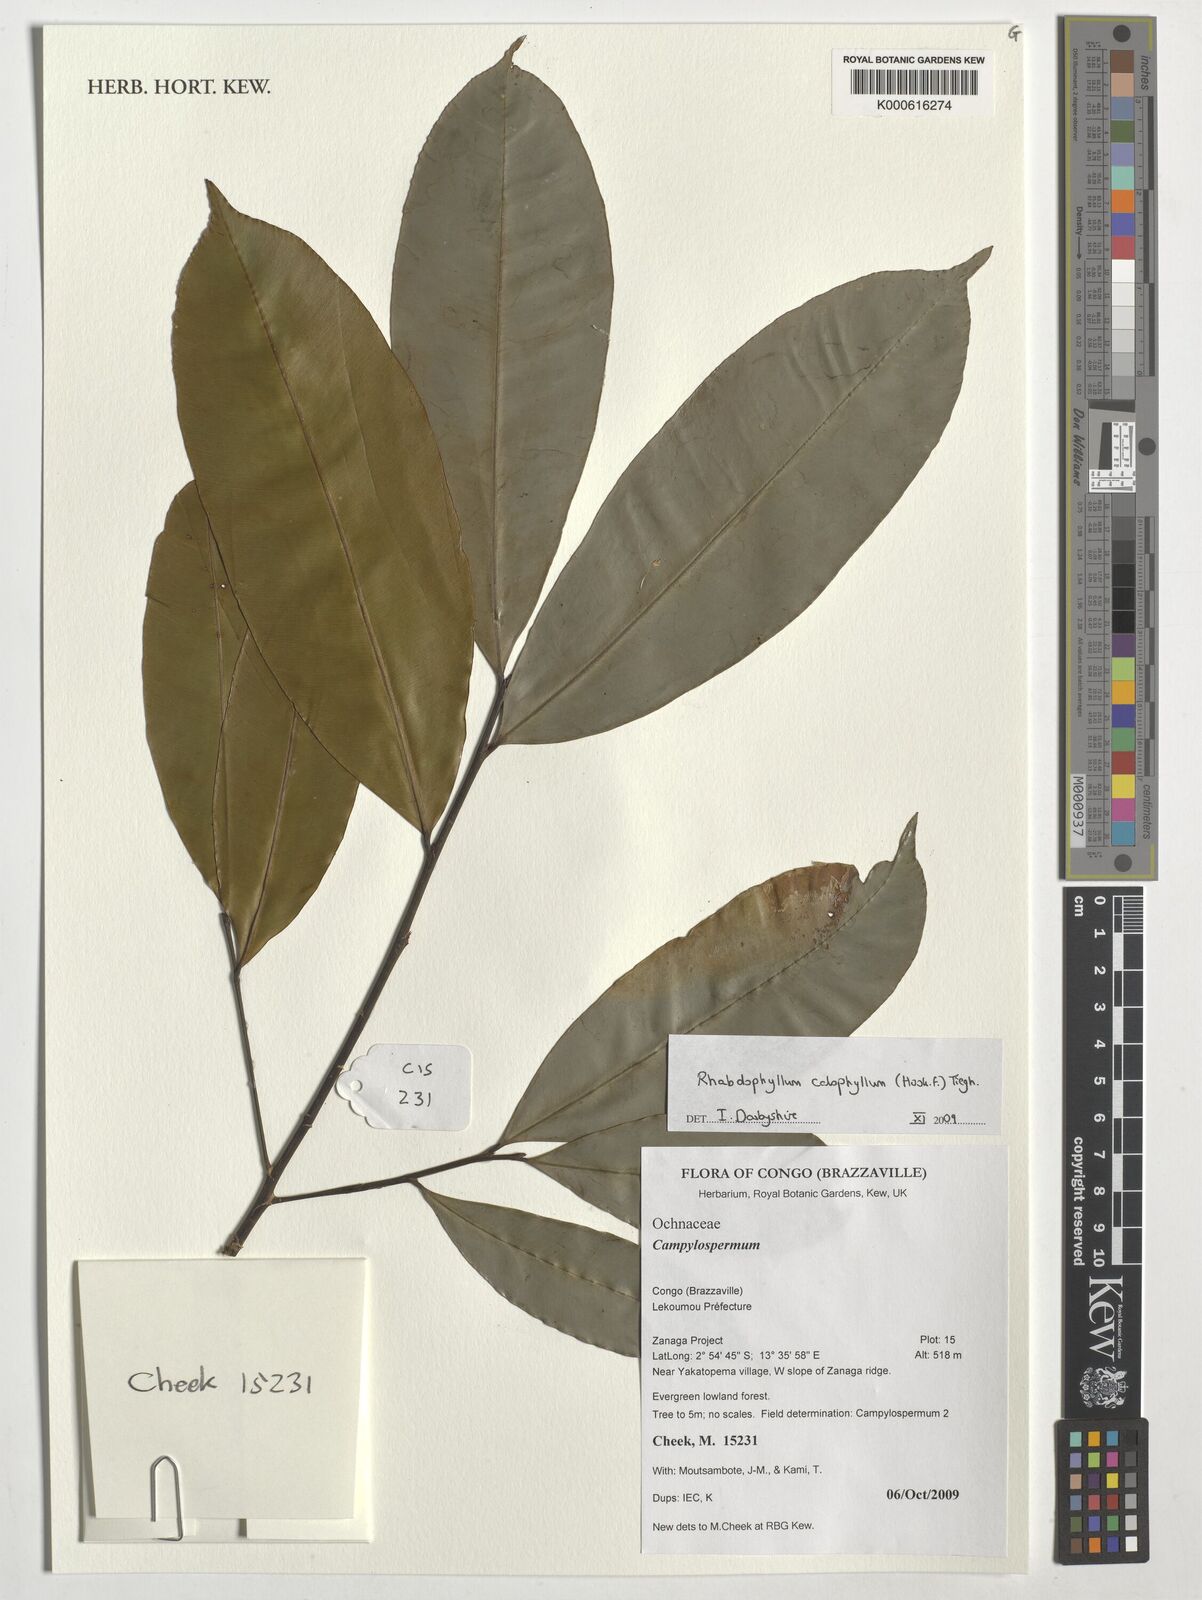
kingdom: Plantae
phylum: Tracheophyta
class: Magnoliopsida
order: Malpighiales
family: Ochnaceae
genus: Rhabdophyllum
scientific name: Rhabdophyllum calophyllum
